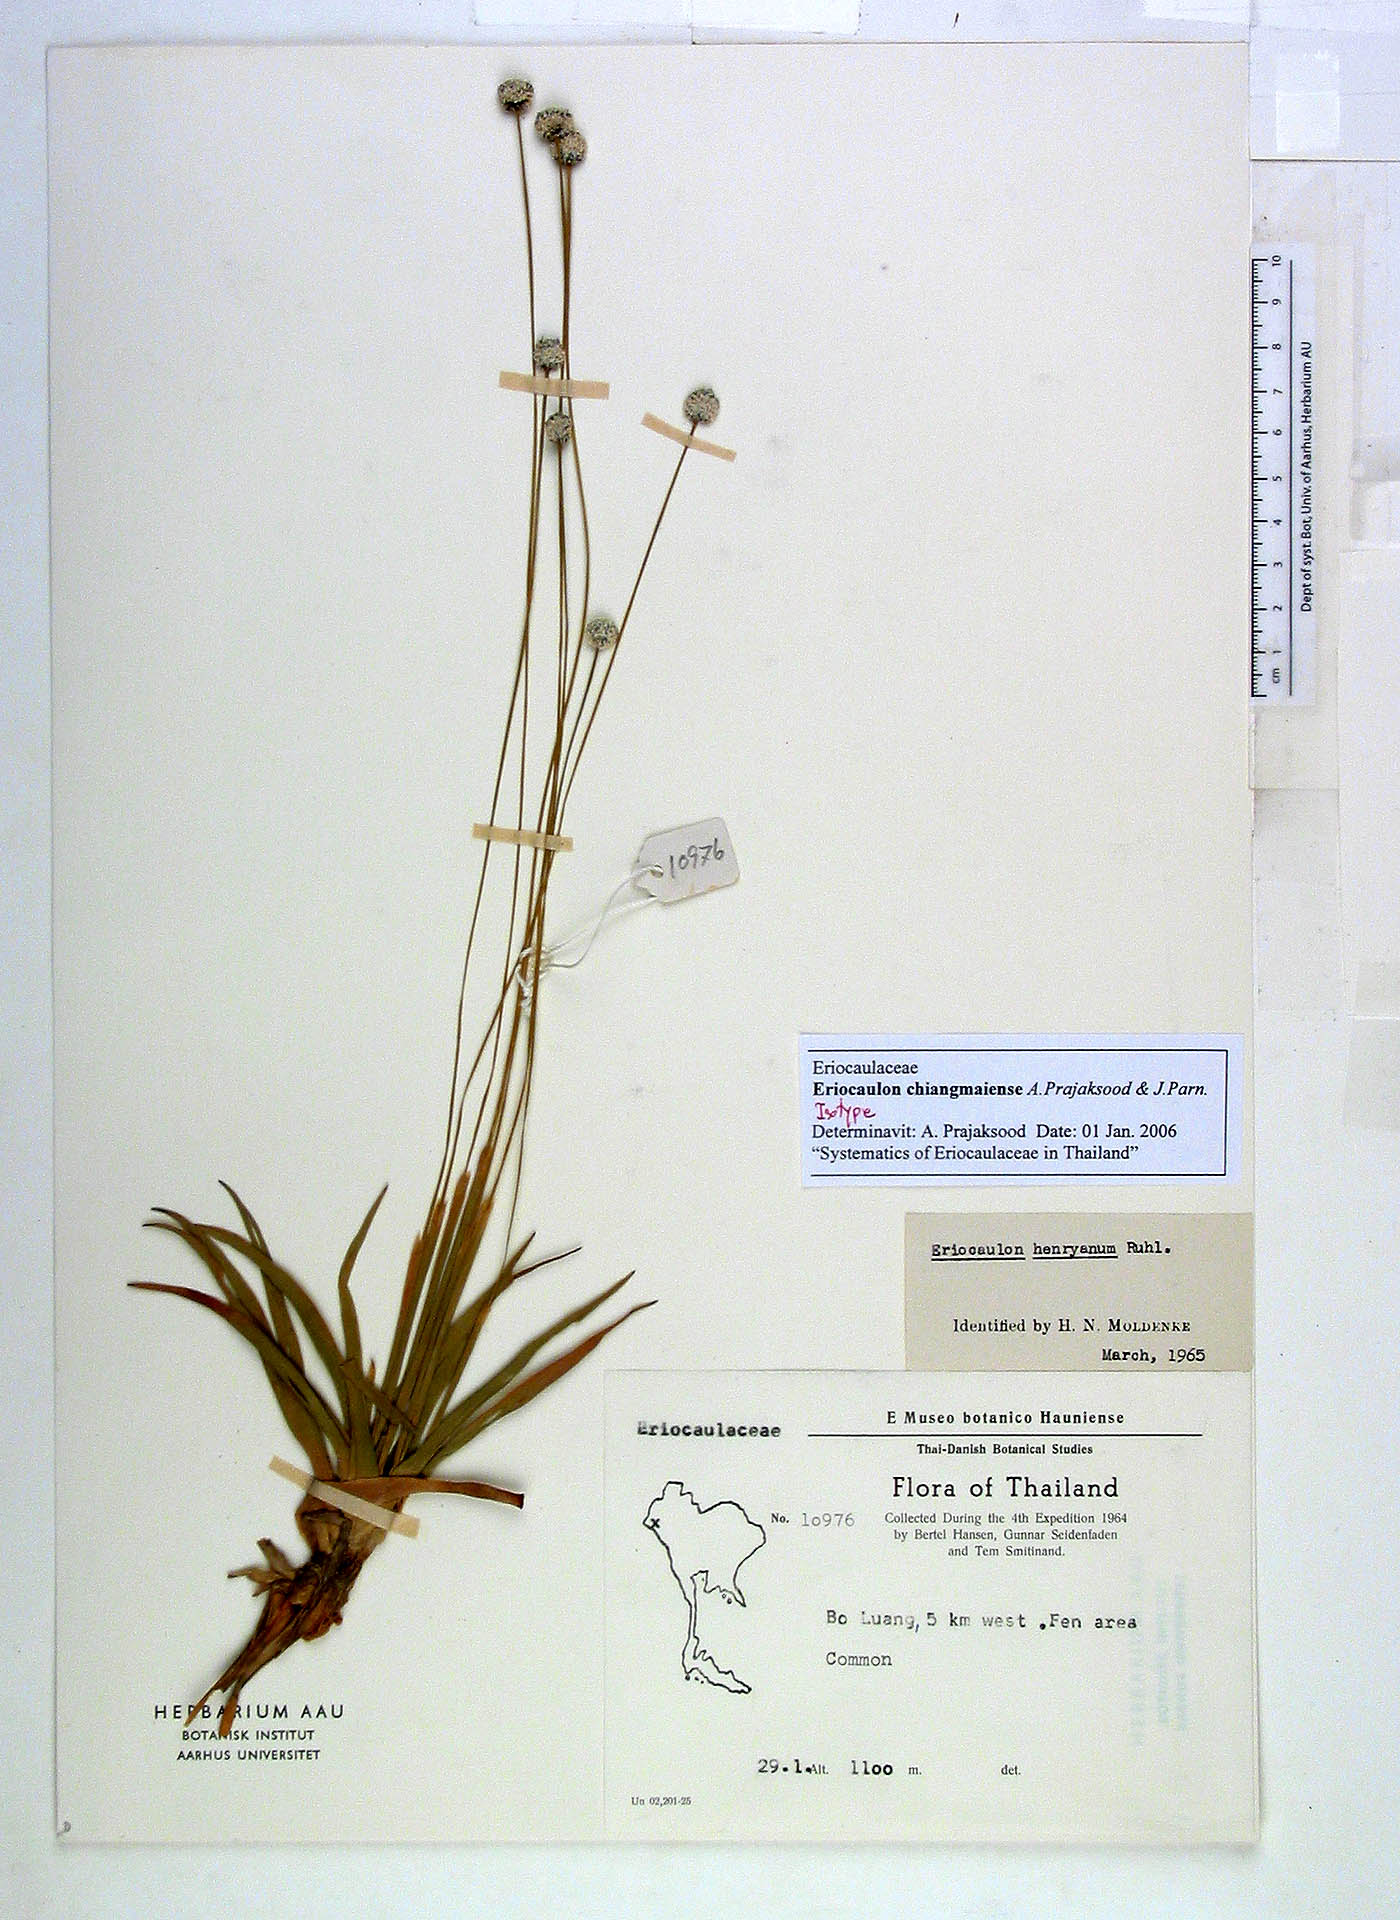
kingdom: Plantae
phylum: Tracheophyta
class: Liliopsida
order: Poales
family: Eriocaulaceae
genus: Eriocaulon
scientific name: Eriocaulon chiangmaiense
